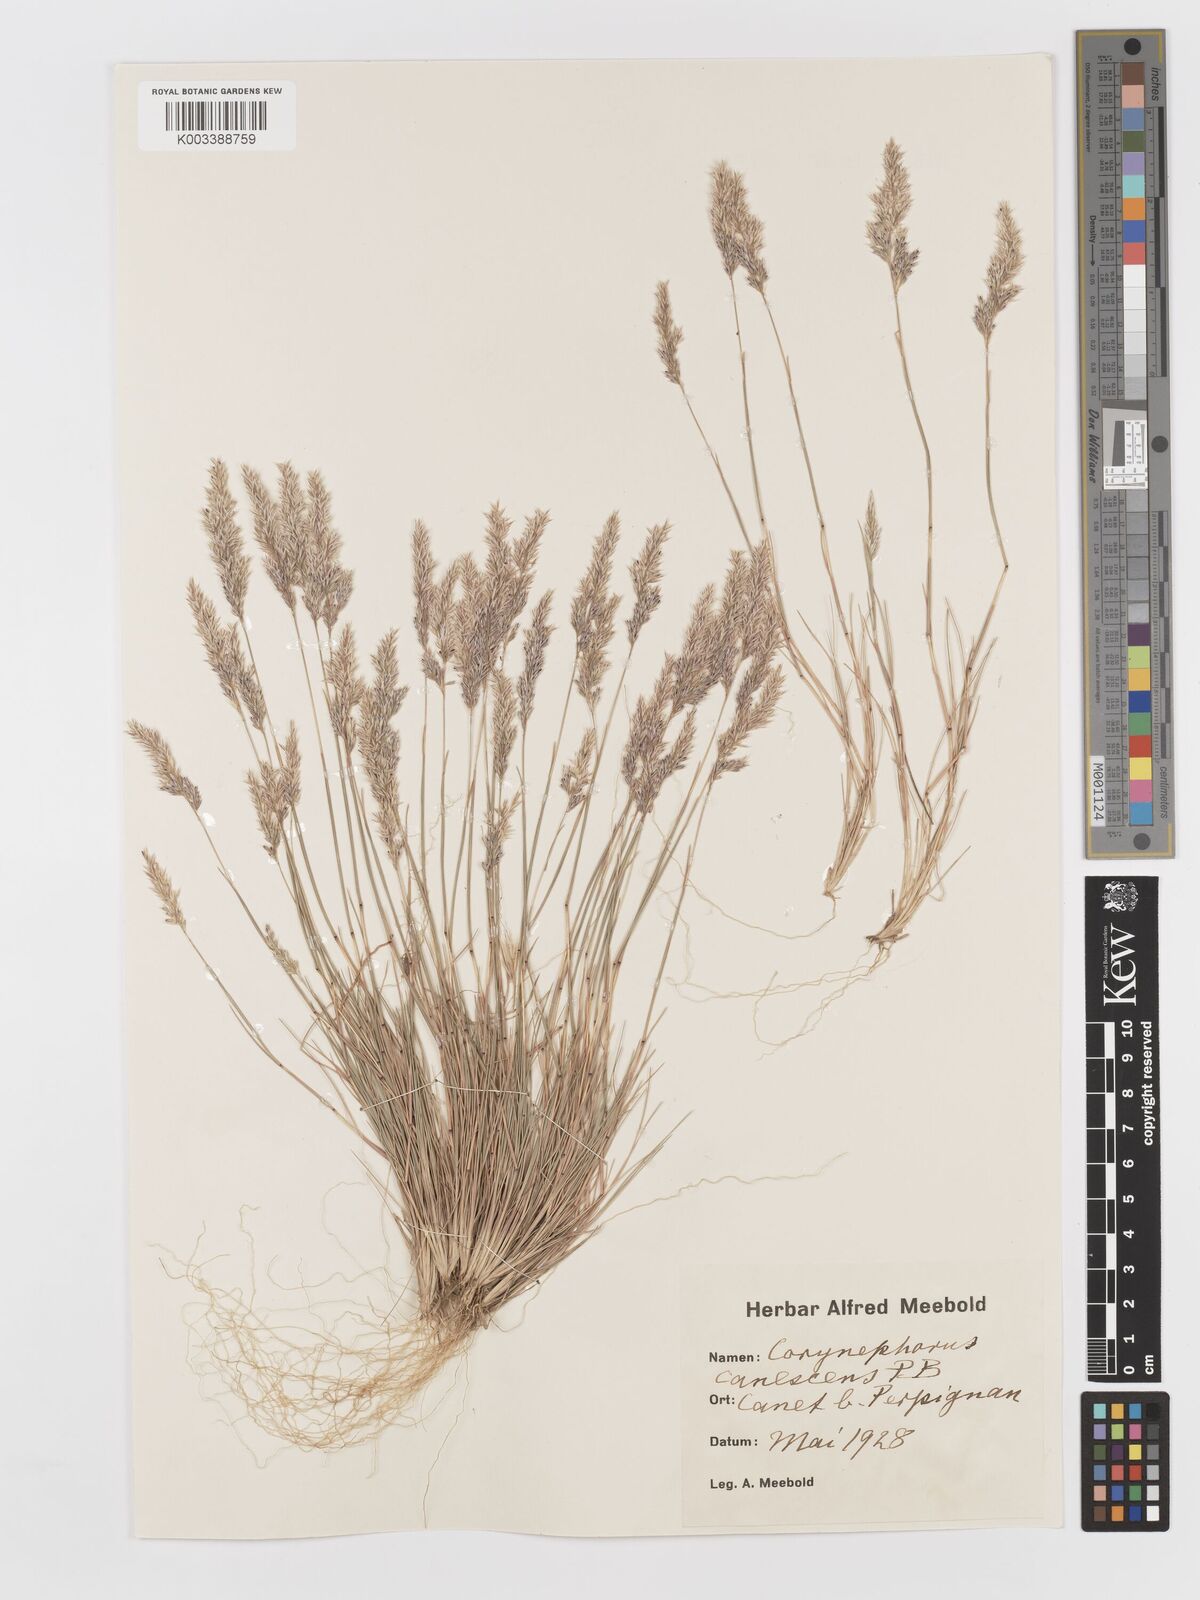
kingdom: Plantae
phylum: Tracheophyta
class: Liliopsida
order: Poales
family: Poaceae
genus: Corynephorus
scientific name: Corynephorus canescens
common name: Grey hair-grass
